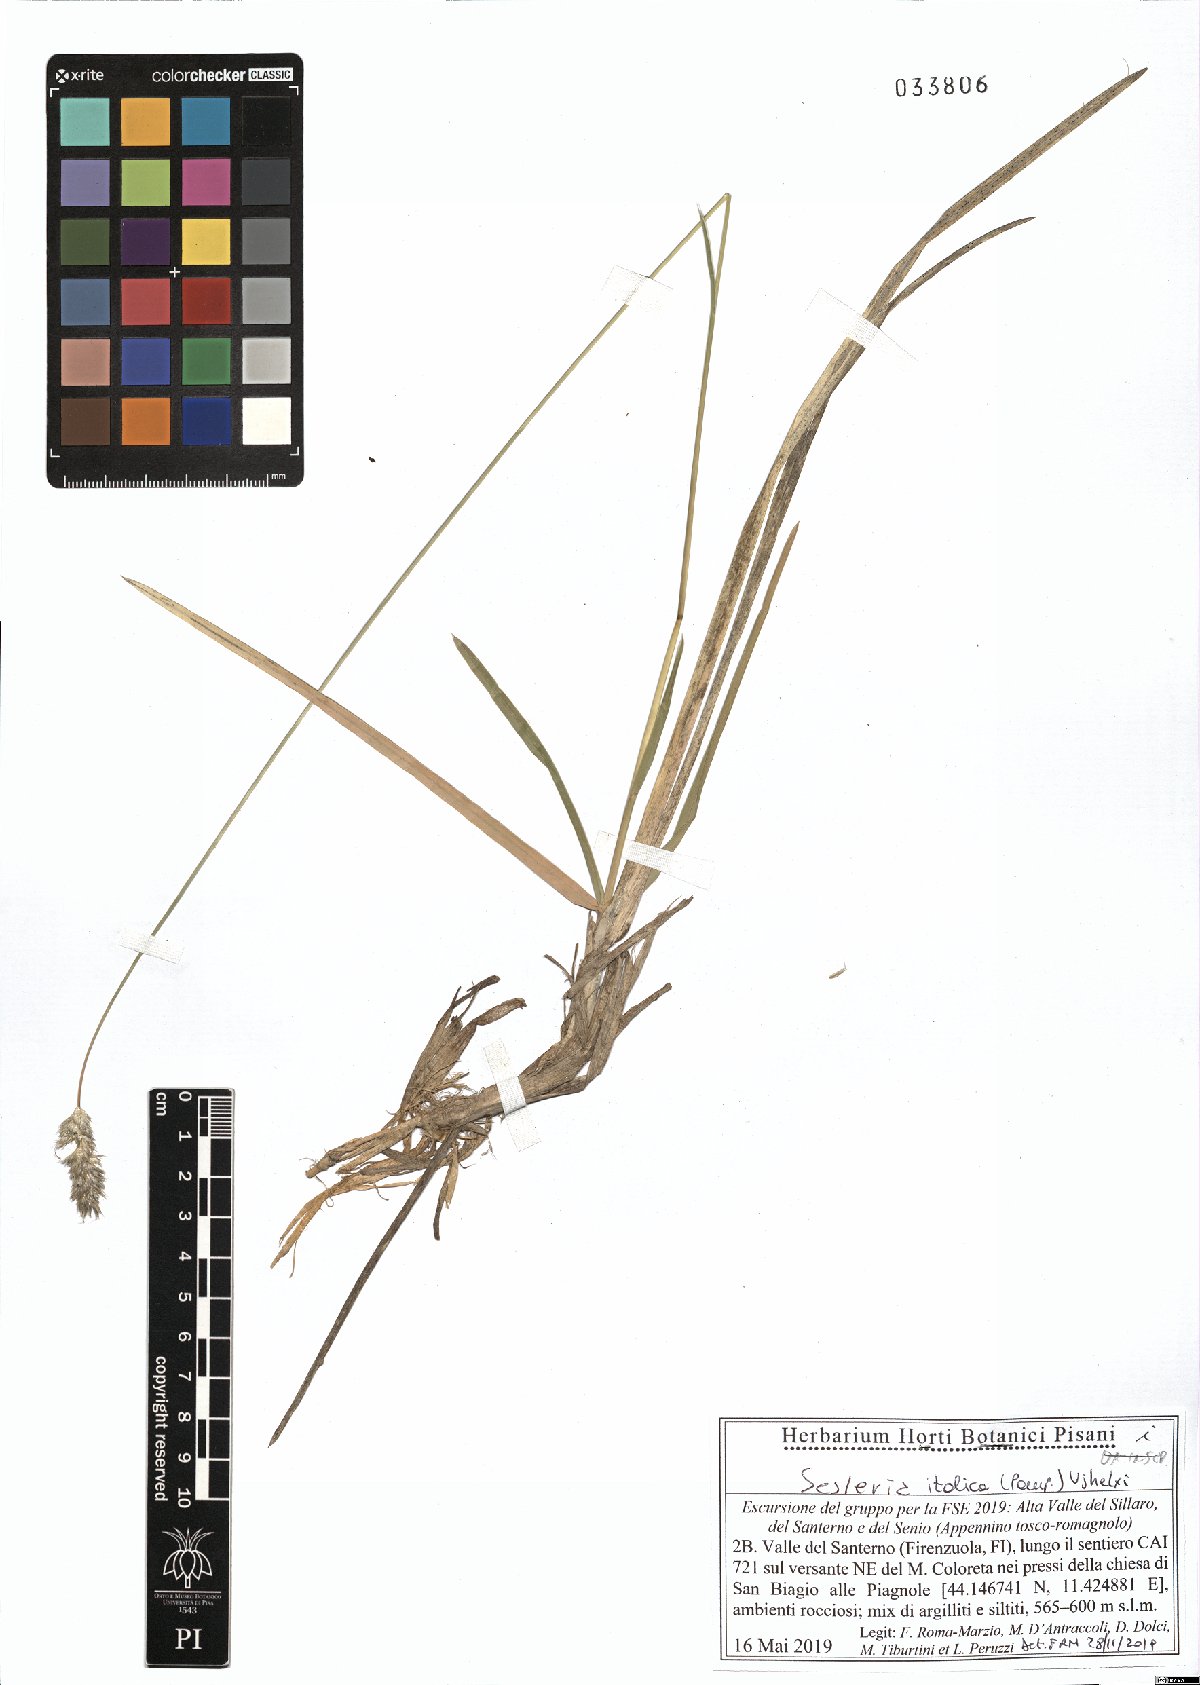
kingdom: Plantae
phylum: Tracheophyta
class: Liliopsida
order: Poales
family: Poaceae
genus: Sesleria
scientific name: Sesleria italica
